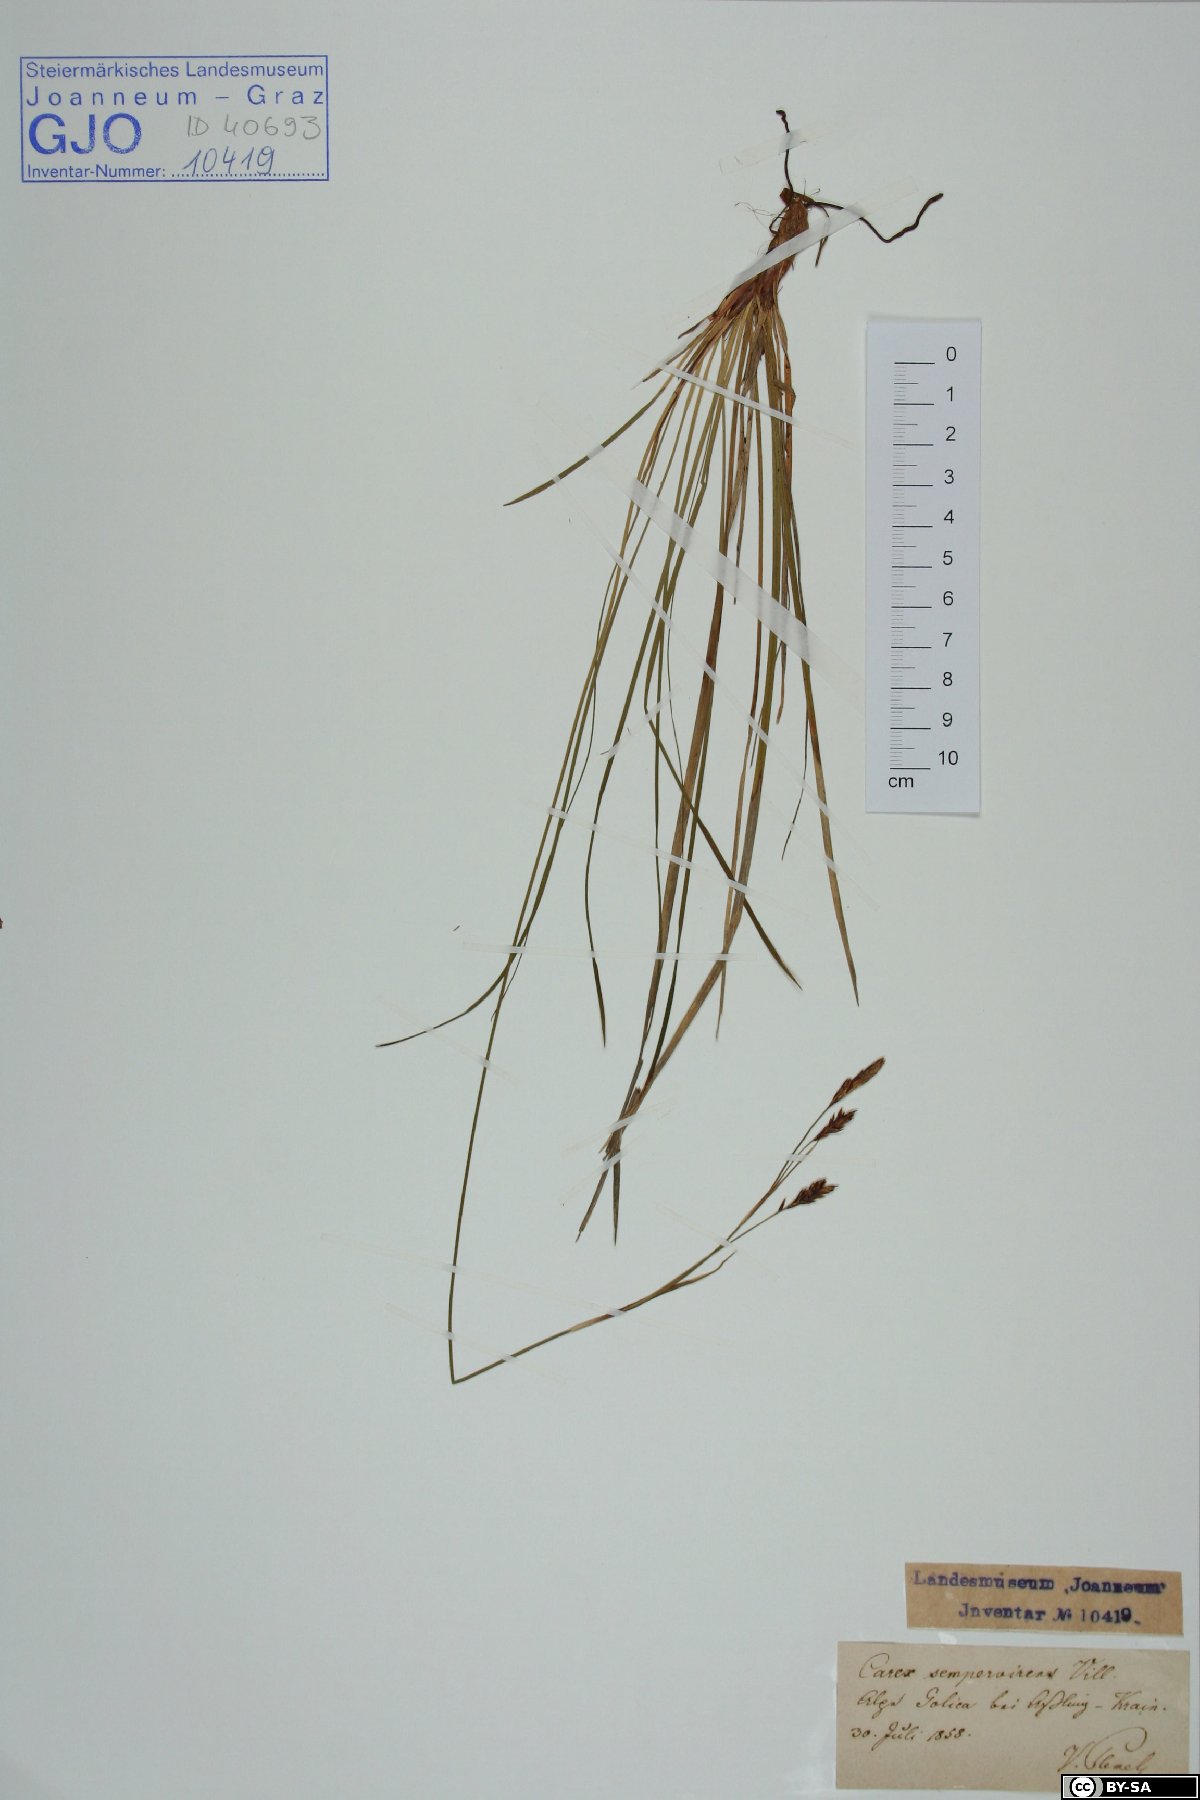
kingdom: Plantae
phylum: Tracheophyta
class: Liliopsida
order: Poales
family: Cyperaceae
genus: Carex
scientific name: Carex sempervirens
